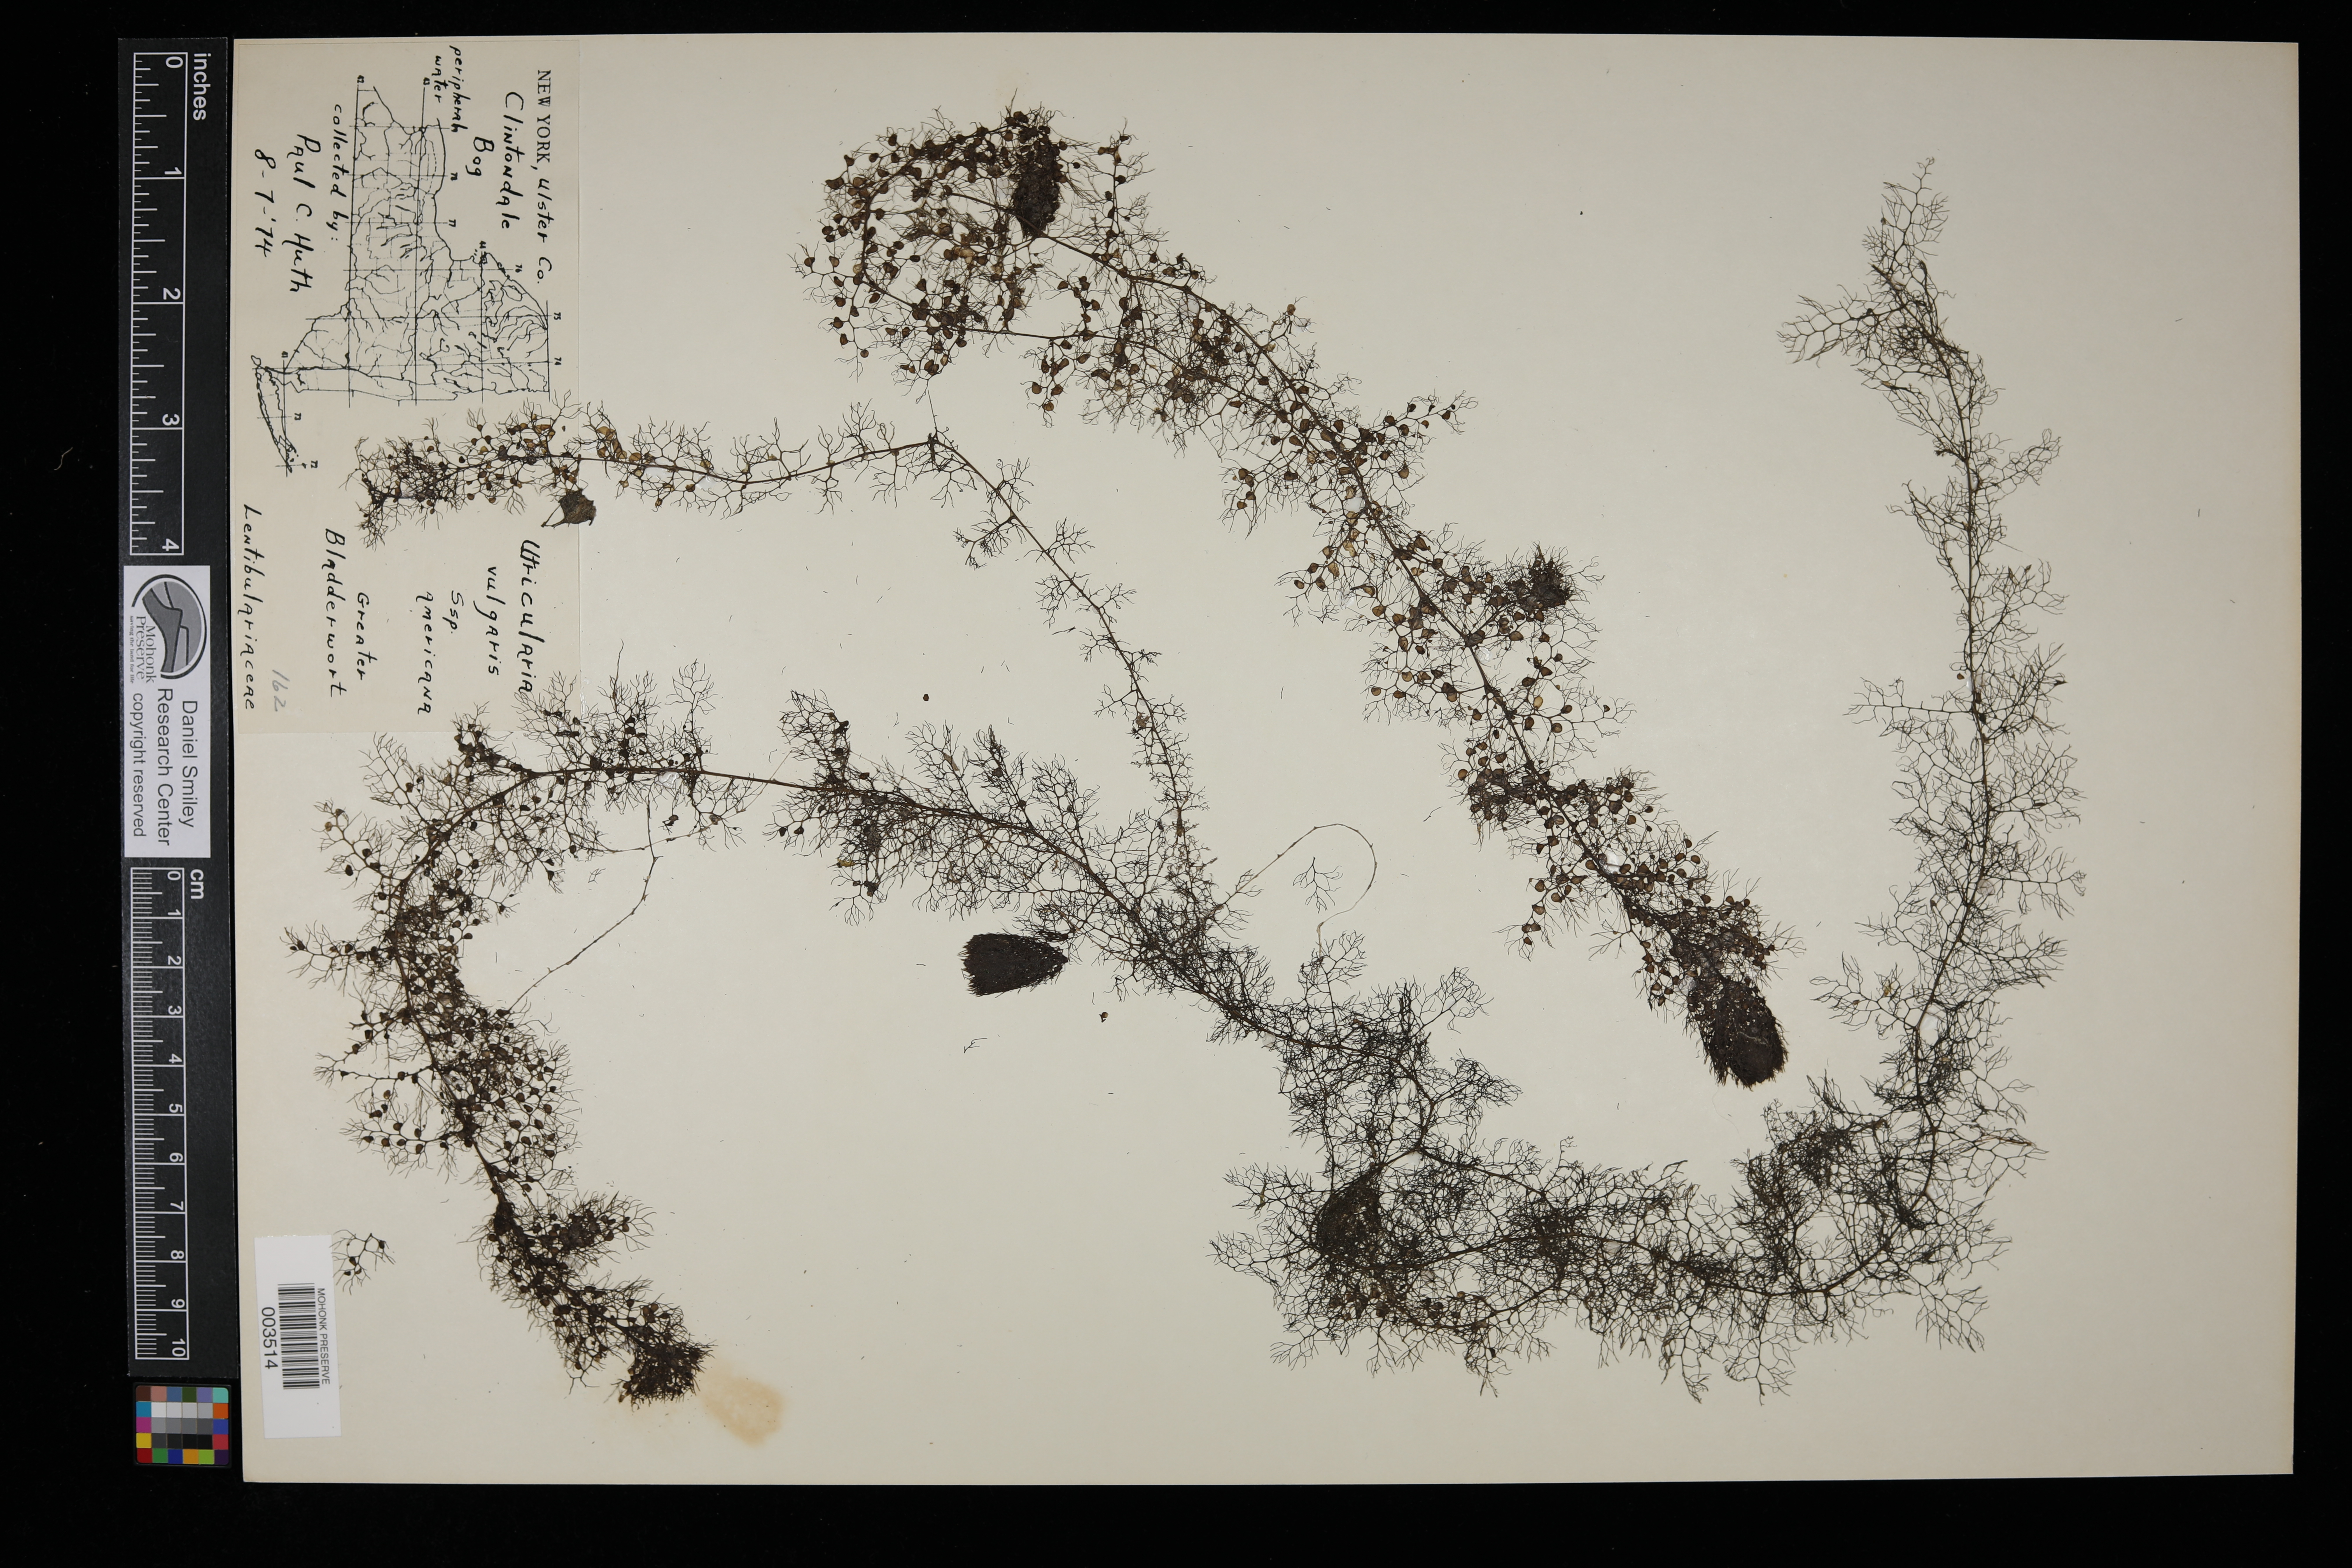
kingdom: Plantae
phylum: Tracheophyta
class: Magnoliopsida
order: Lamiales
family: Lentibulariaceae
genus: Utricularia
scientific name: Utricularia vulgaris
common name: Greater bladderwort
